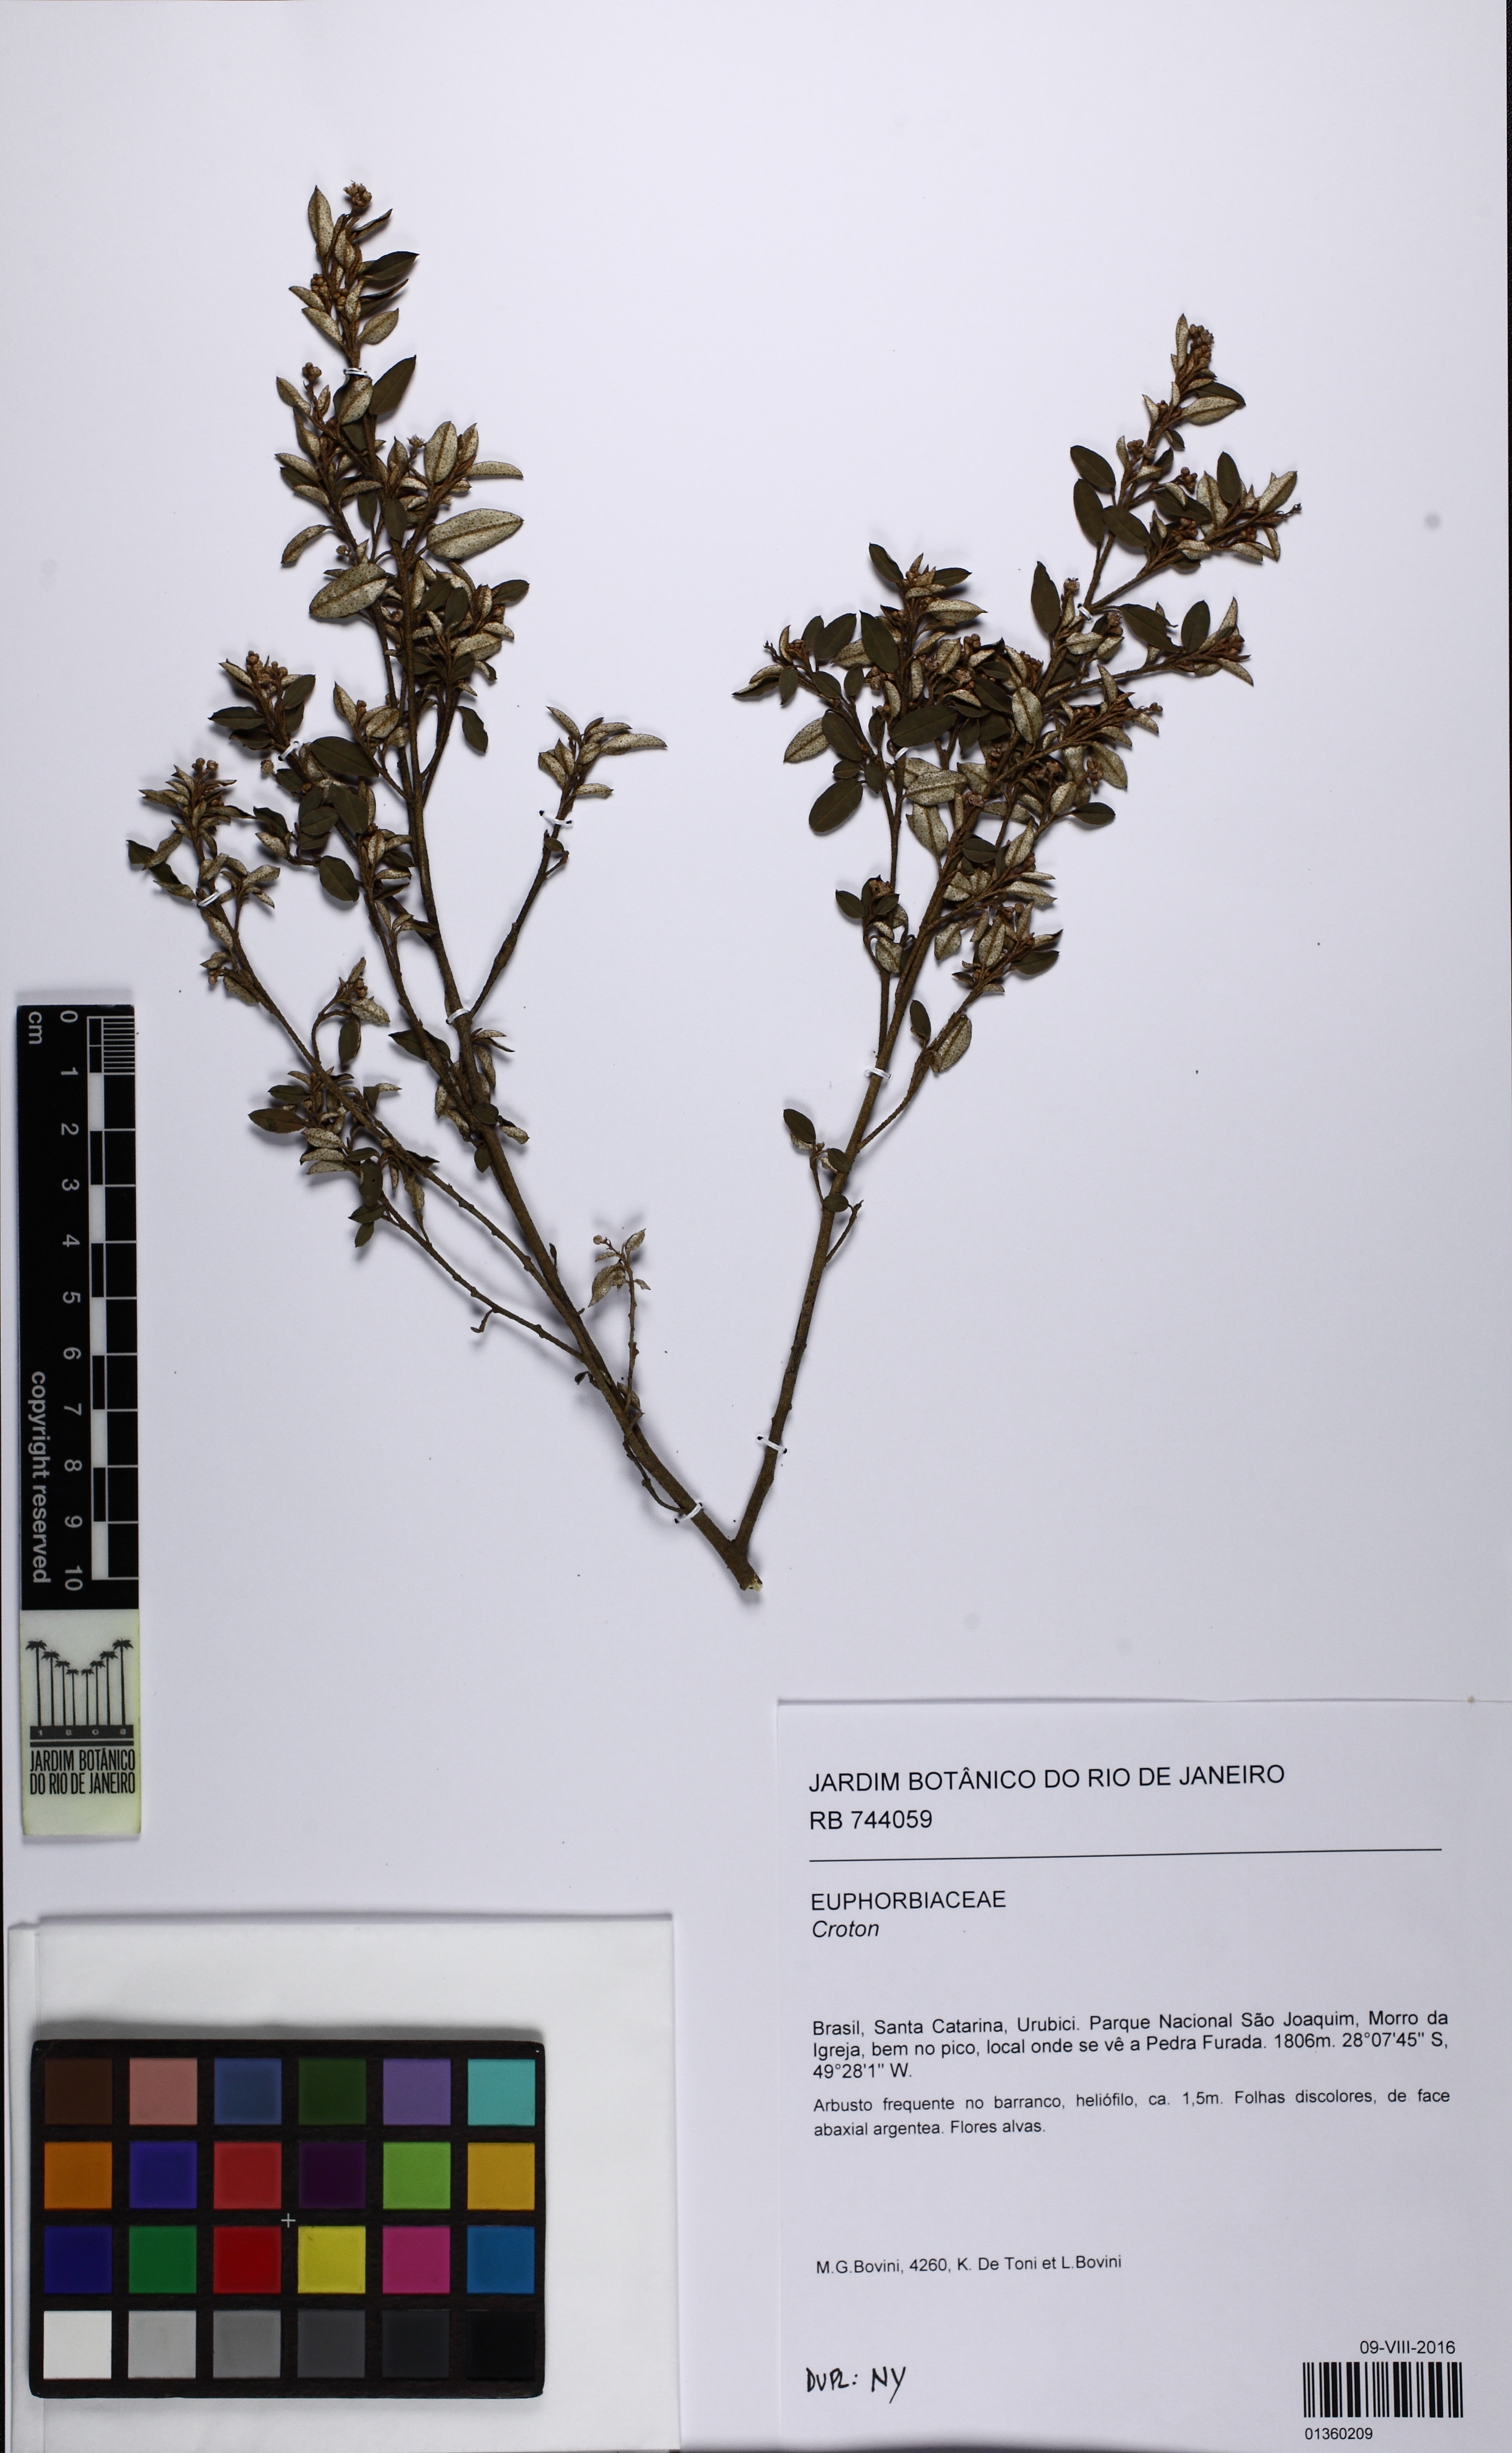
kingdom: Plantae
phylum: Tracheophyta
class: Magnoliopsida
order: Malpighiales
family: Euphorbiaceae
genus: Croton
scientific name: Croton splendidus
